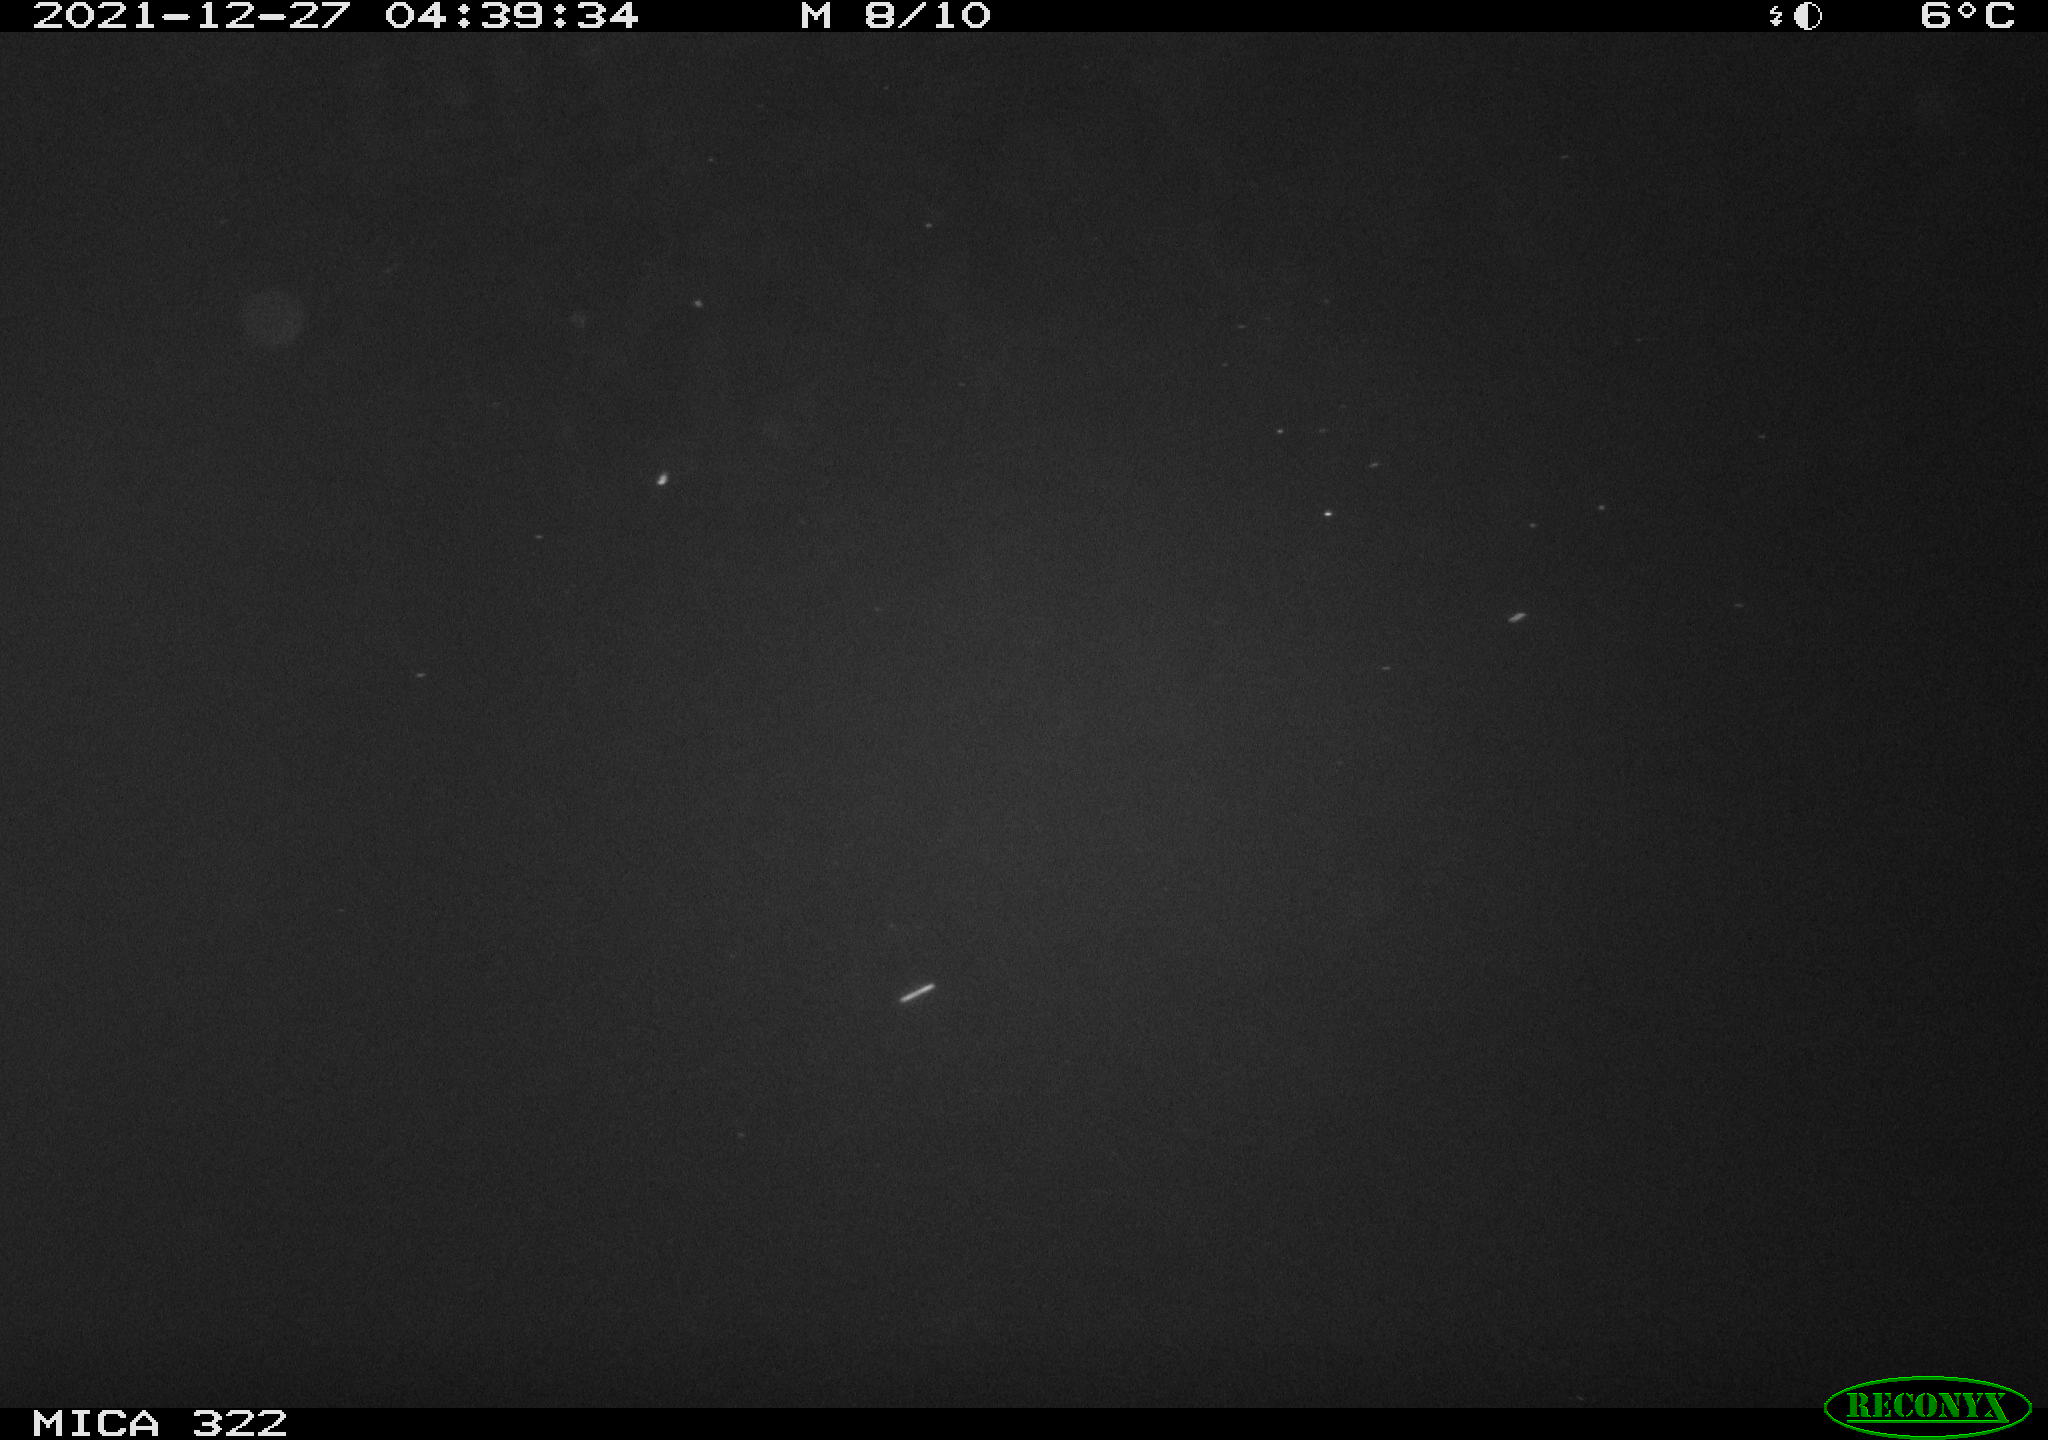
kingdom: Animalia
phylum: Chordata
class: Mammalia
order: Rodentia
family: Muridae
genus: Rattus
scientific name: Rattus norvegicus
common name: Brown rat
